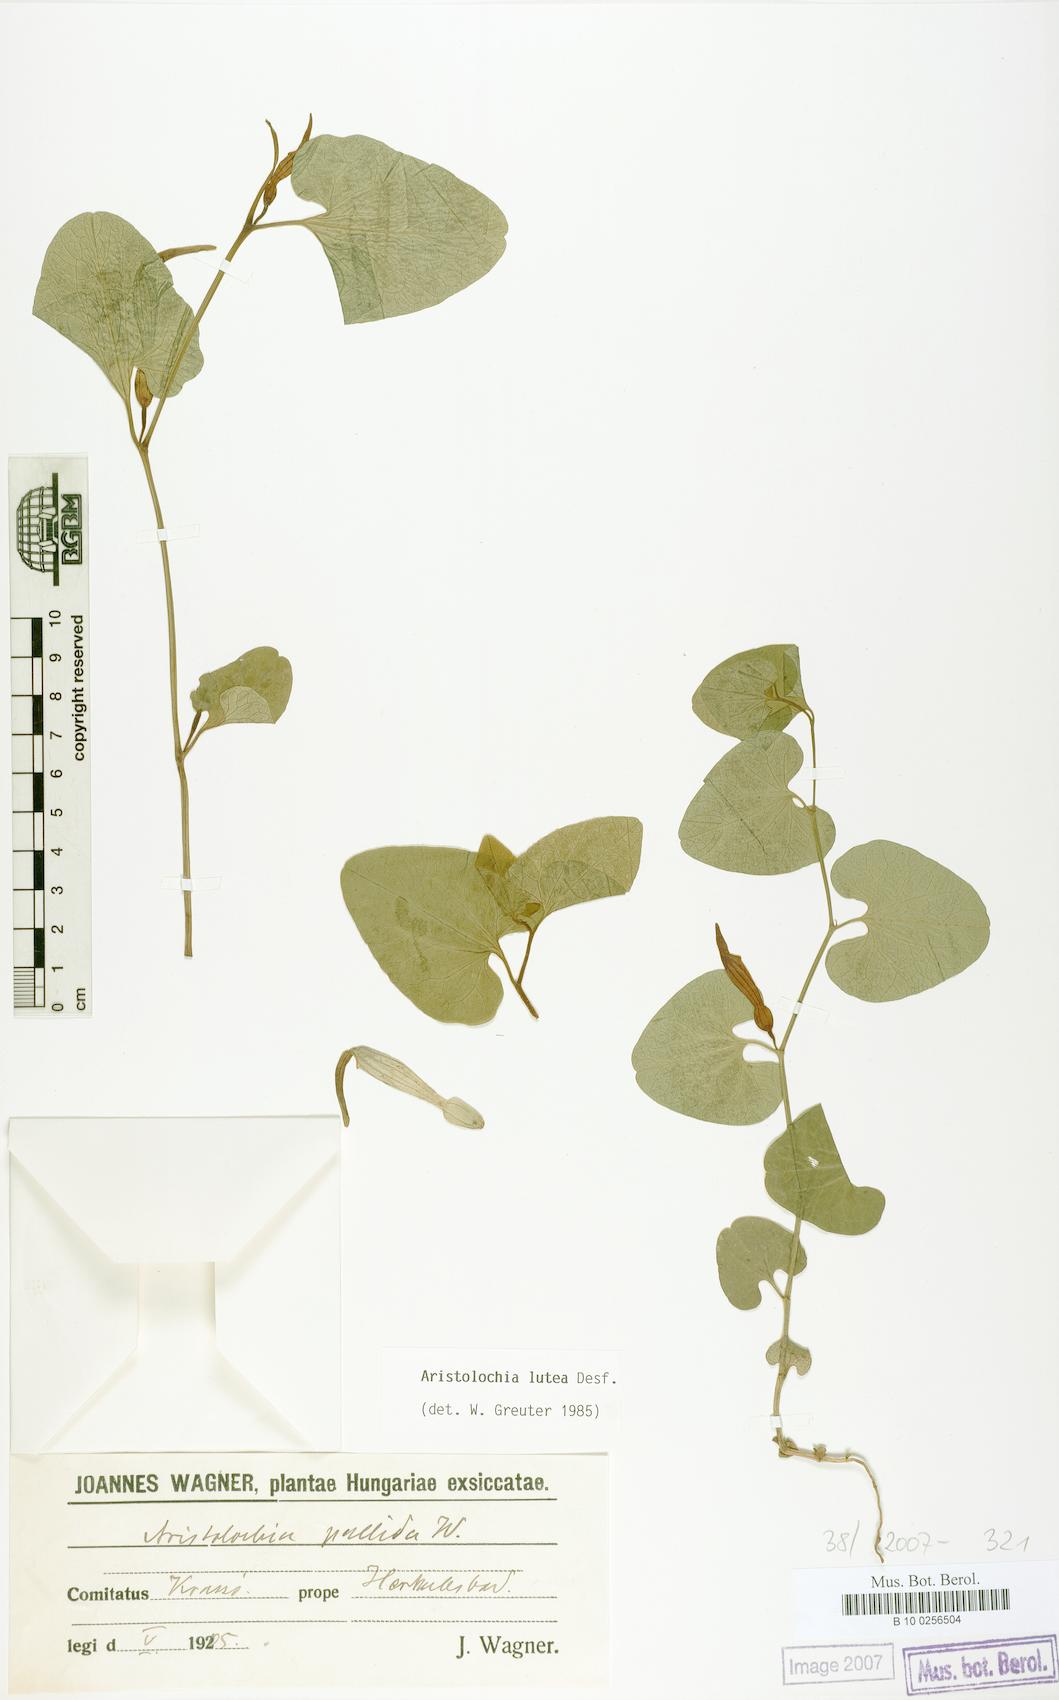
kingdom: Plantae
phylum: Tracheophyta
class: Magnoliopsida
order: Piperales
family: Aristolochiaceae
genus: Aristolochia
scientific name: Aristolochia lutea
